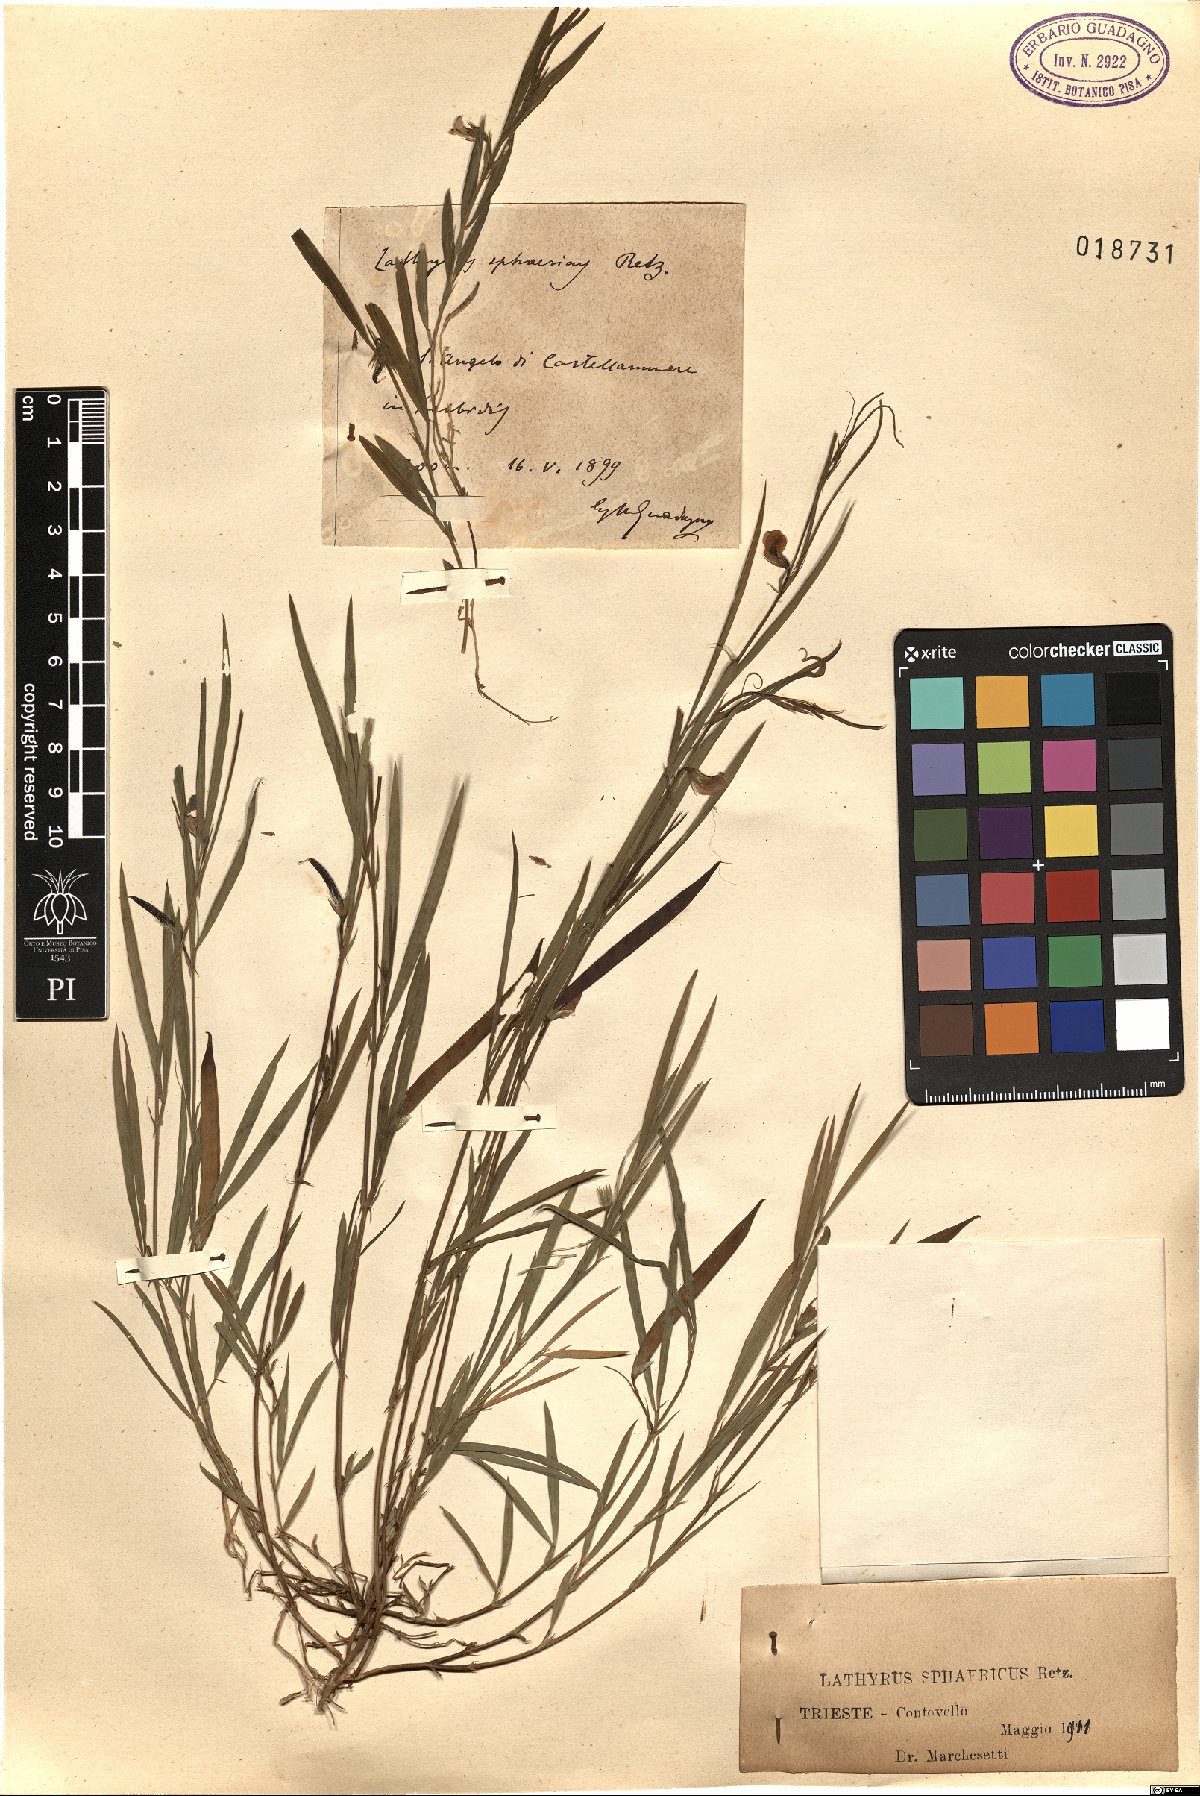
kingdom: Plantae
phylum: Tracheophyta
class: Magnoliopsida
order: Fabales
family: Fabaceae
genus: Lathyrus
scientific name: Lathyrus sphaericus
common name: Grass pea
